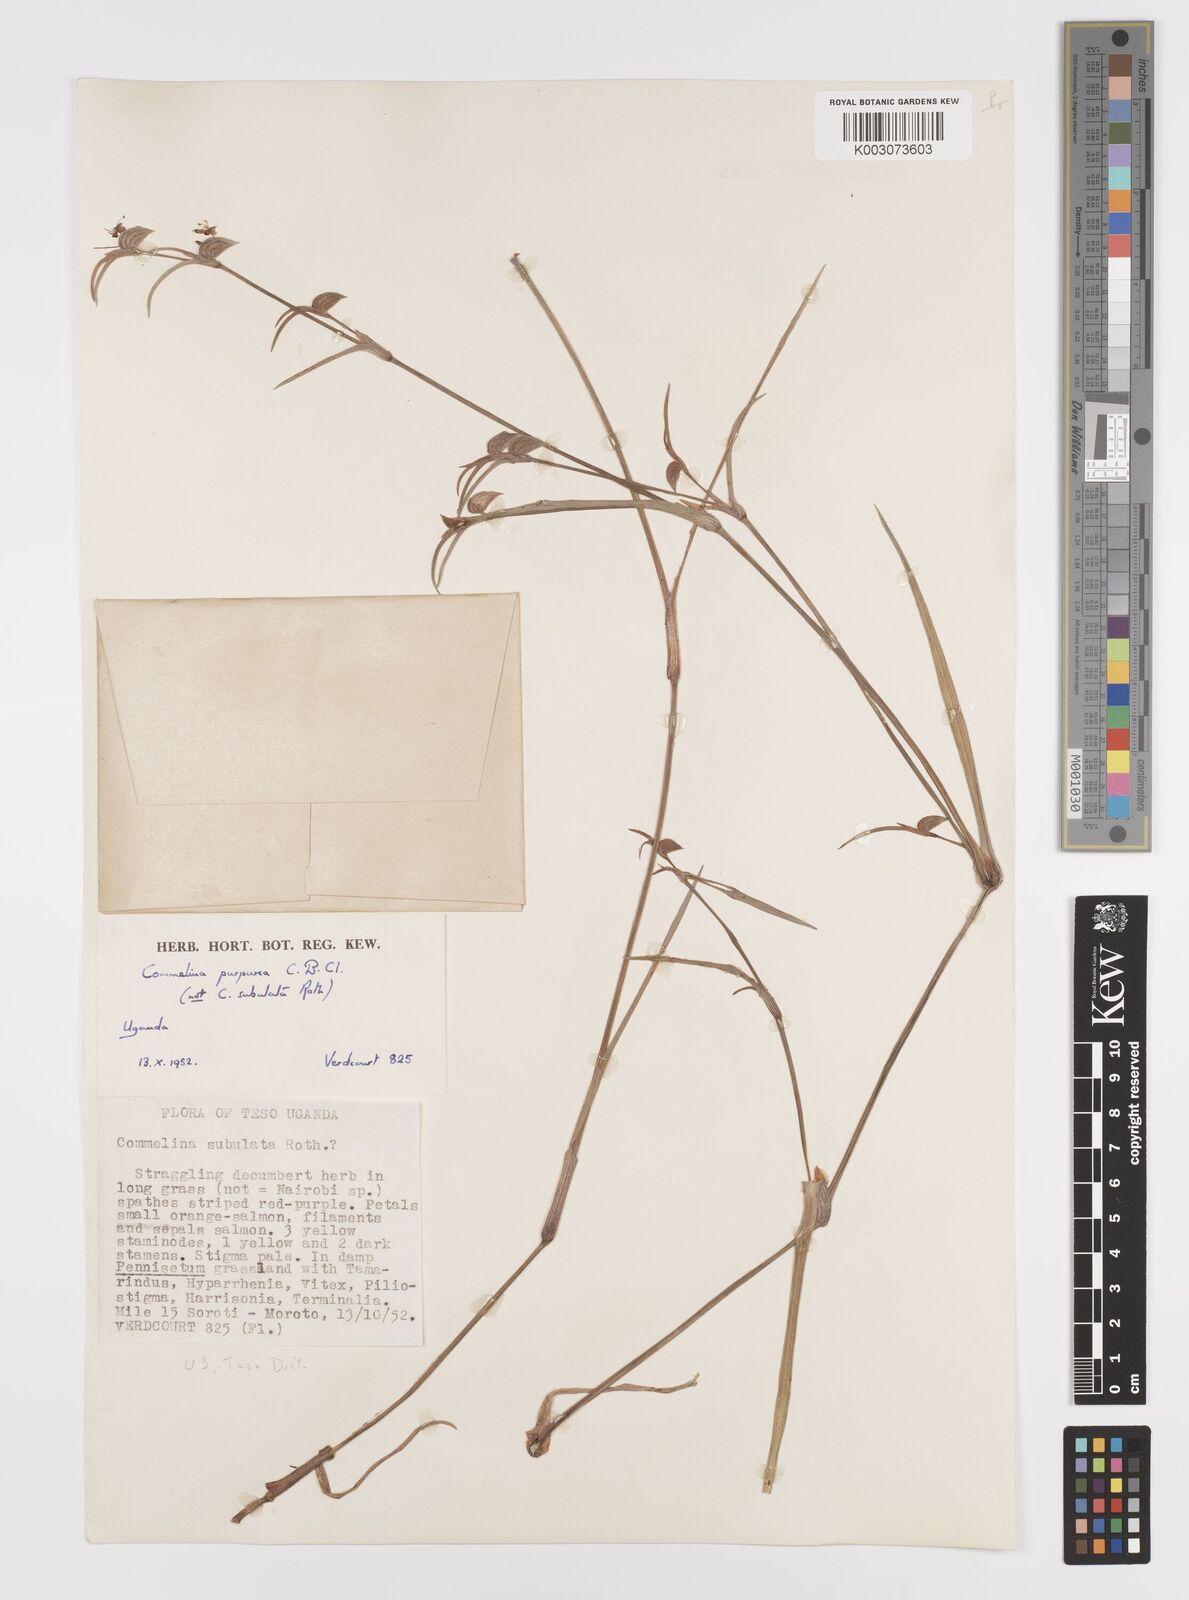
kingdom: Plantae
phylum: Tracheophyta
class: Liliopsida
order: Commelinales
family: Commelinaceae
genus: Commelina
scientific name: Commelina purpurea
